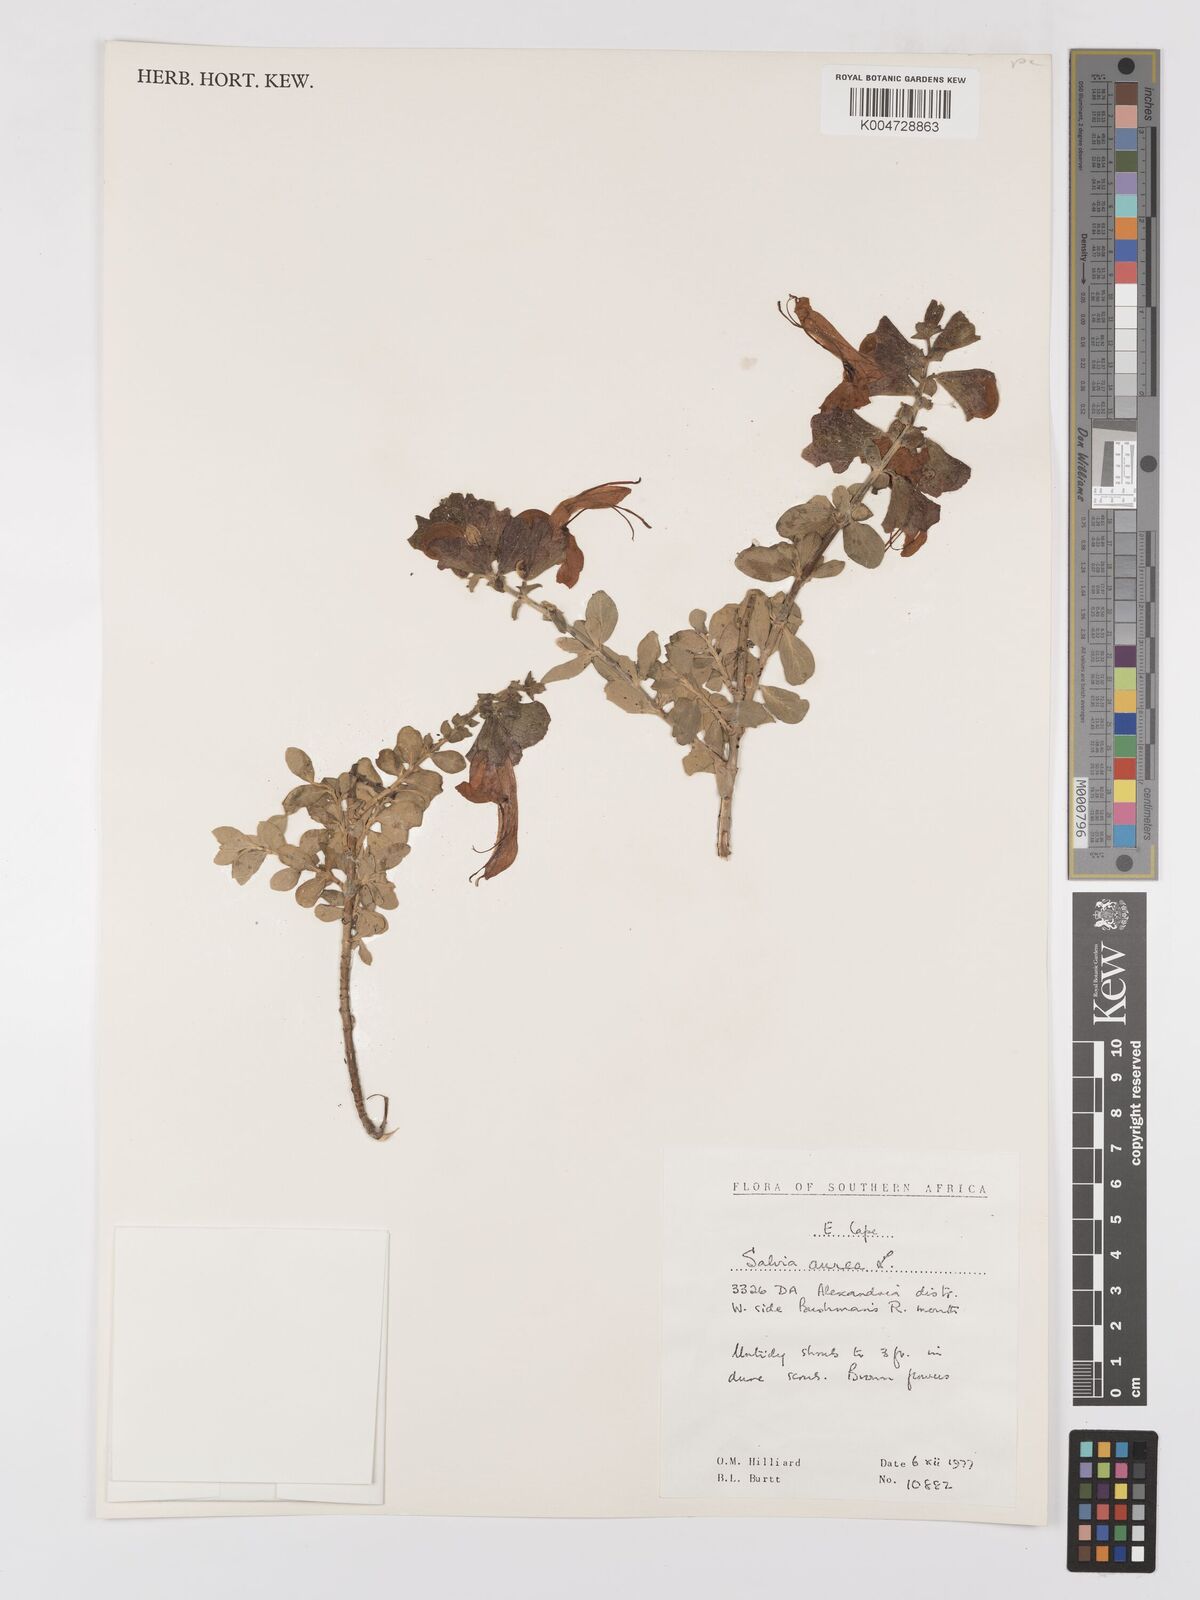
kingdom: Plantae
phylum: Tracheophyta
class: Magnoliopsida
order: Lamiales
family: Lamiaceae
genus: Salvia
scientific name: Salvia aurea
